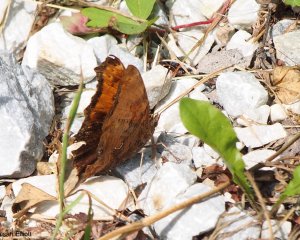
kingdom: Animalia
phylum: Arthropoda
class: Insecta
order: Lepidoptera
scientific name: Lepidoptera
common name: Butterflies
